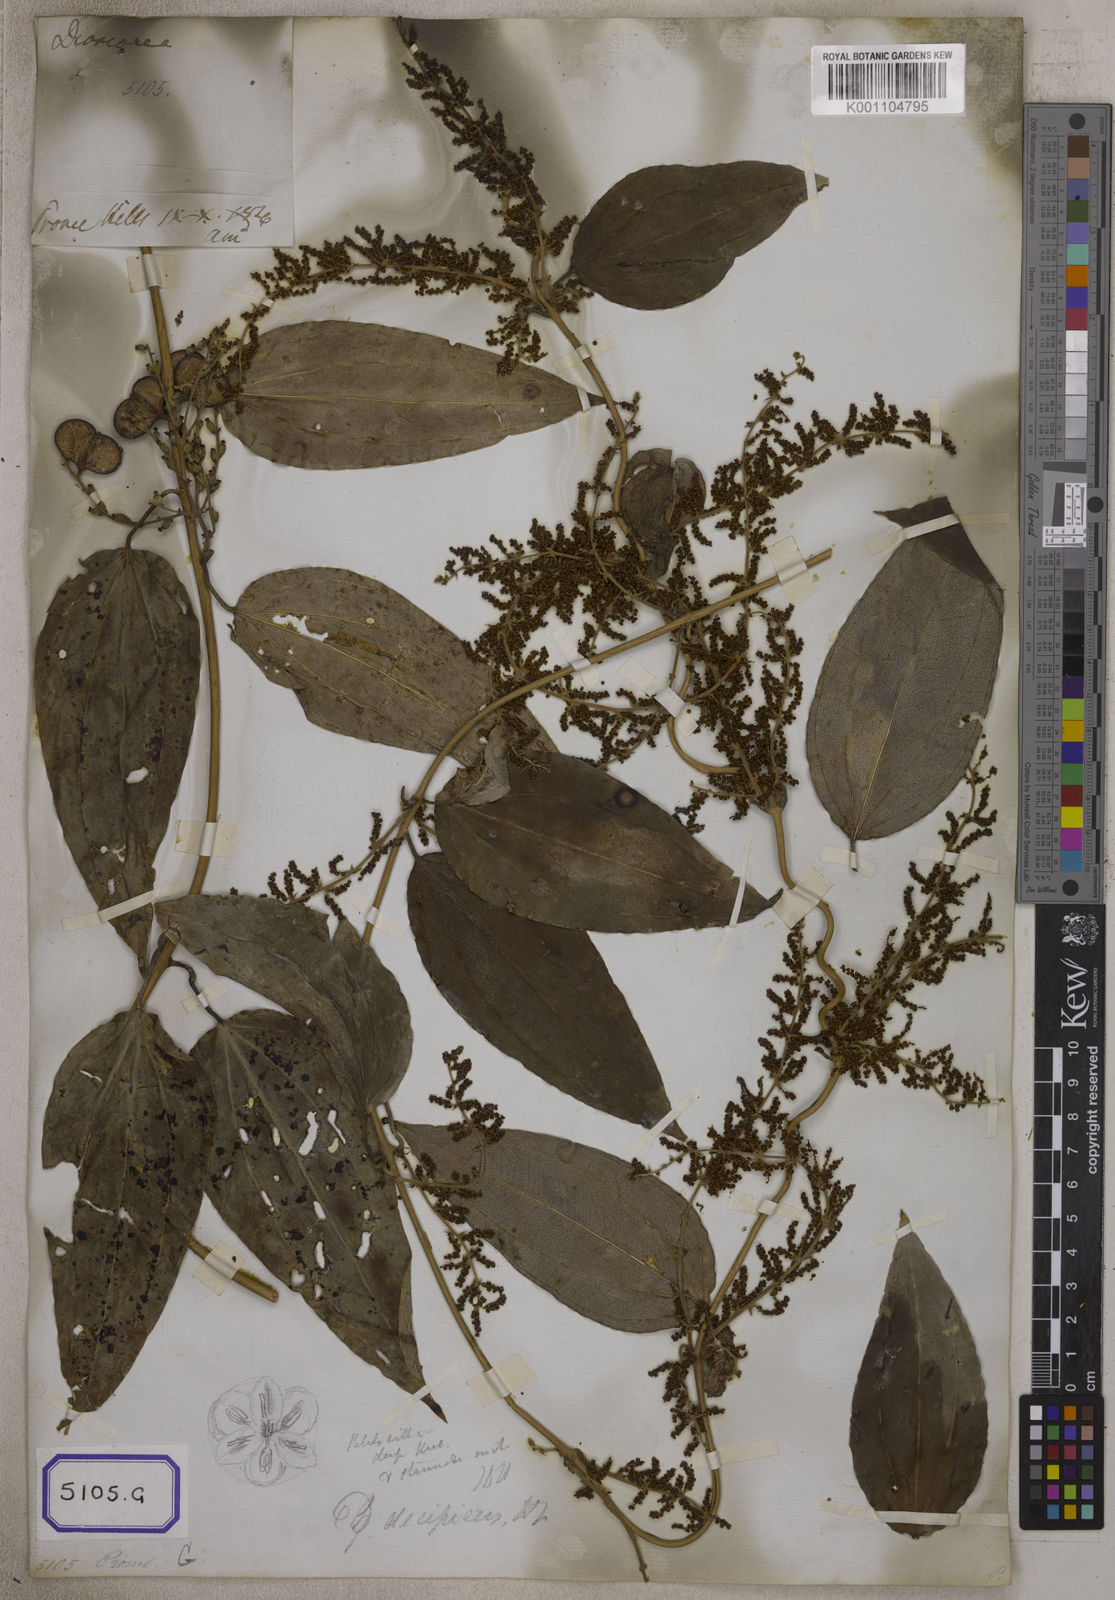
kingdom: Plantae
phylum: Tracheophyta
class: Liliopsida
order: Dioscoreales
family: Dioscoreaceae
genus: Dioscorea
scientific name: Dioscorea glabra
